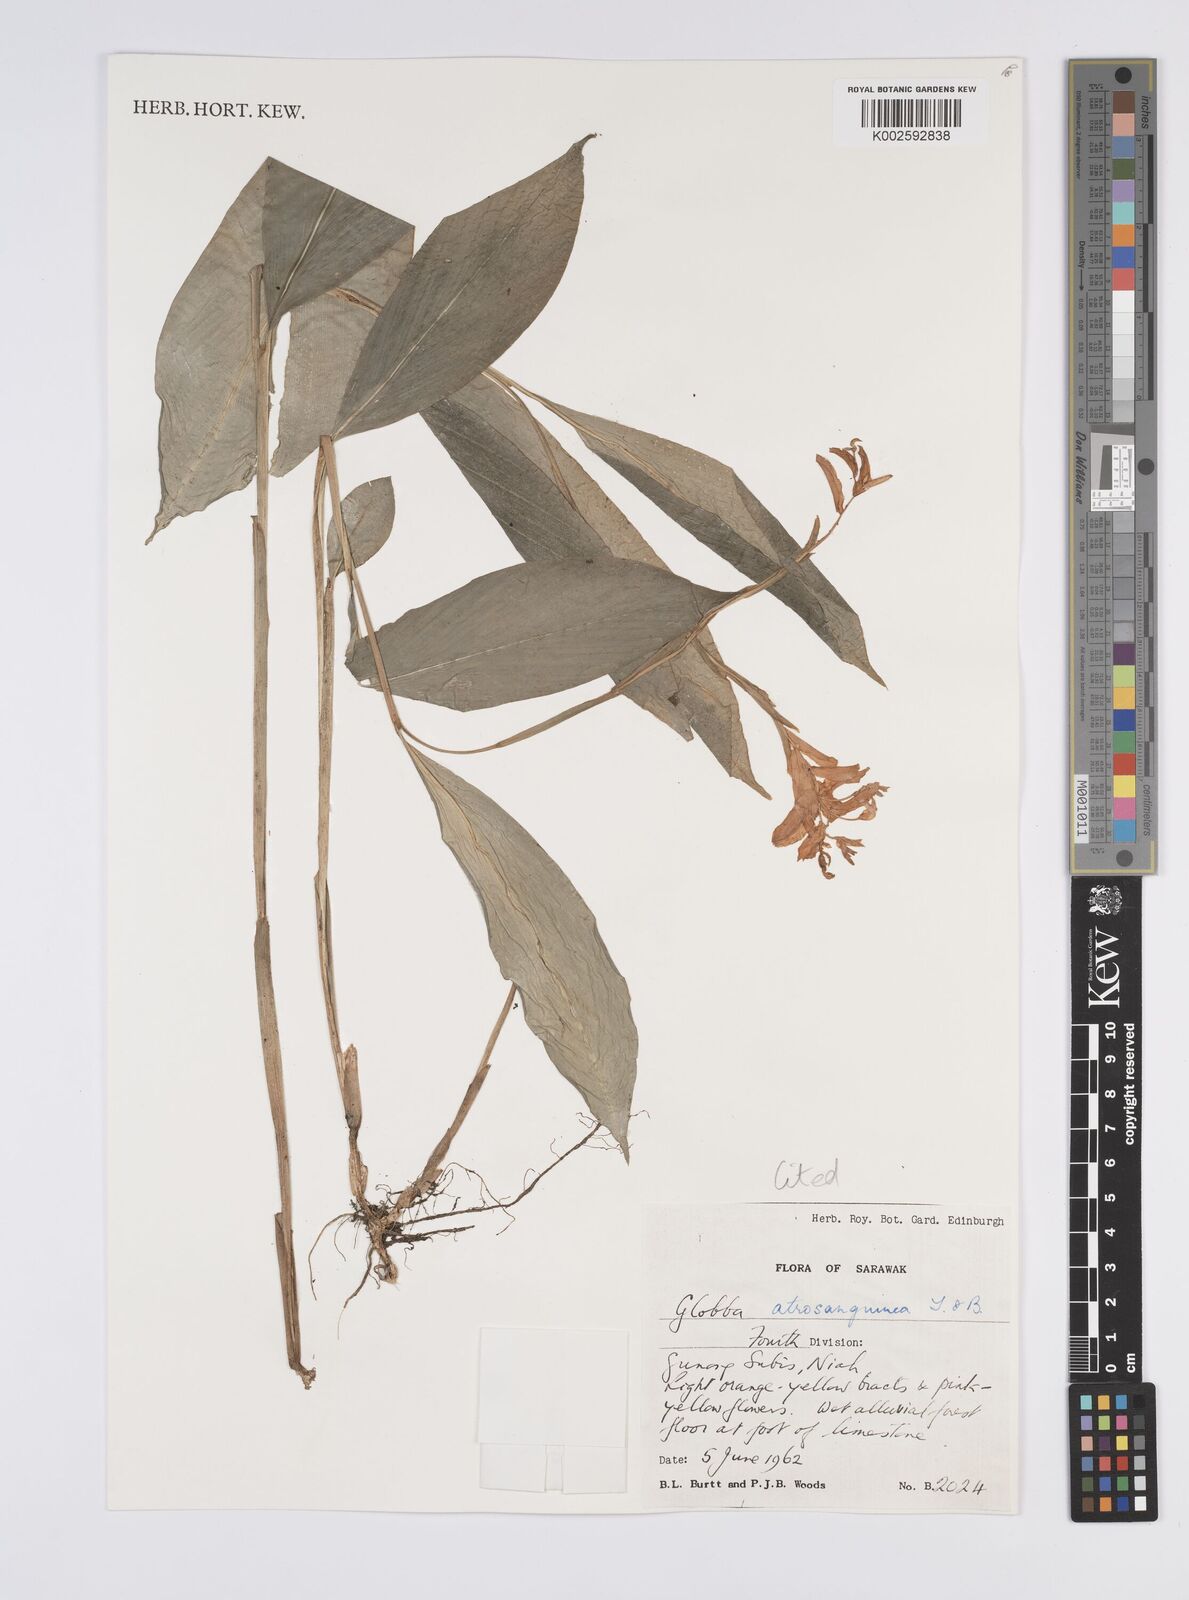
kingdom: Plantae
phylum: Tracheophyta
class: Liliopsida
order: Zingiberales
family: Zingiberaceae
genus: Globba
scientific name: Globba atrosanguinea
